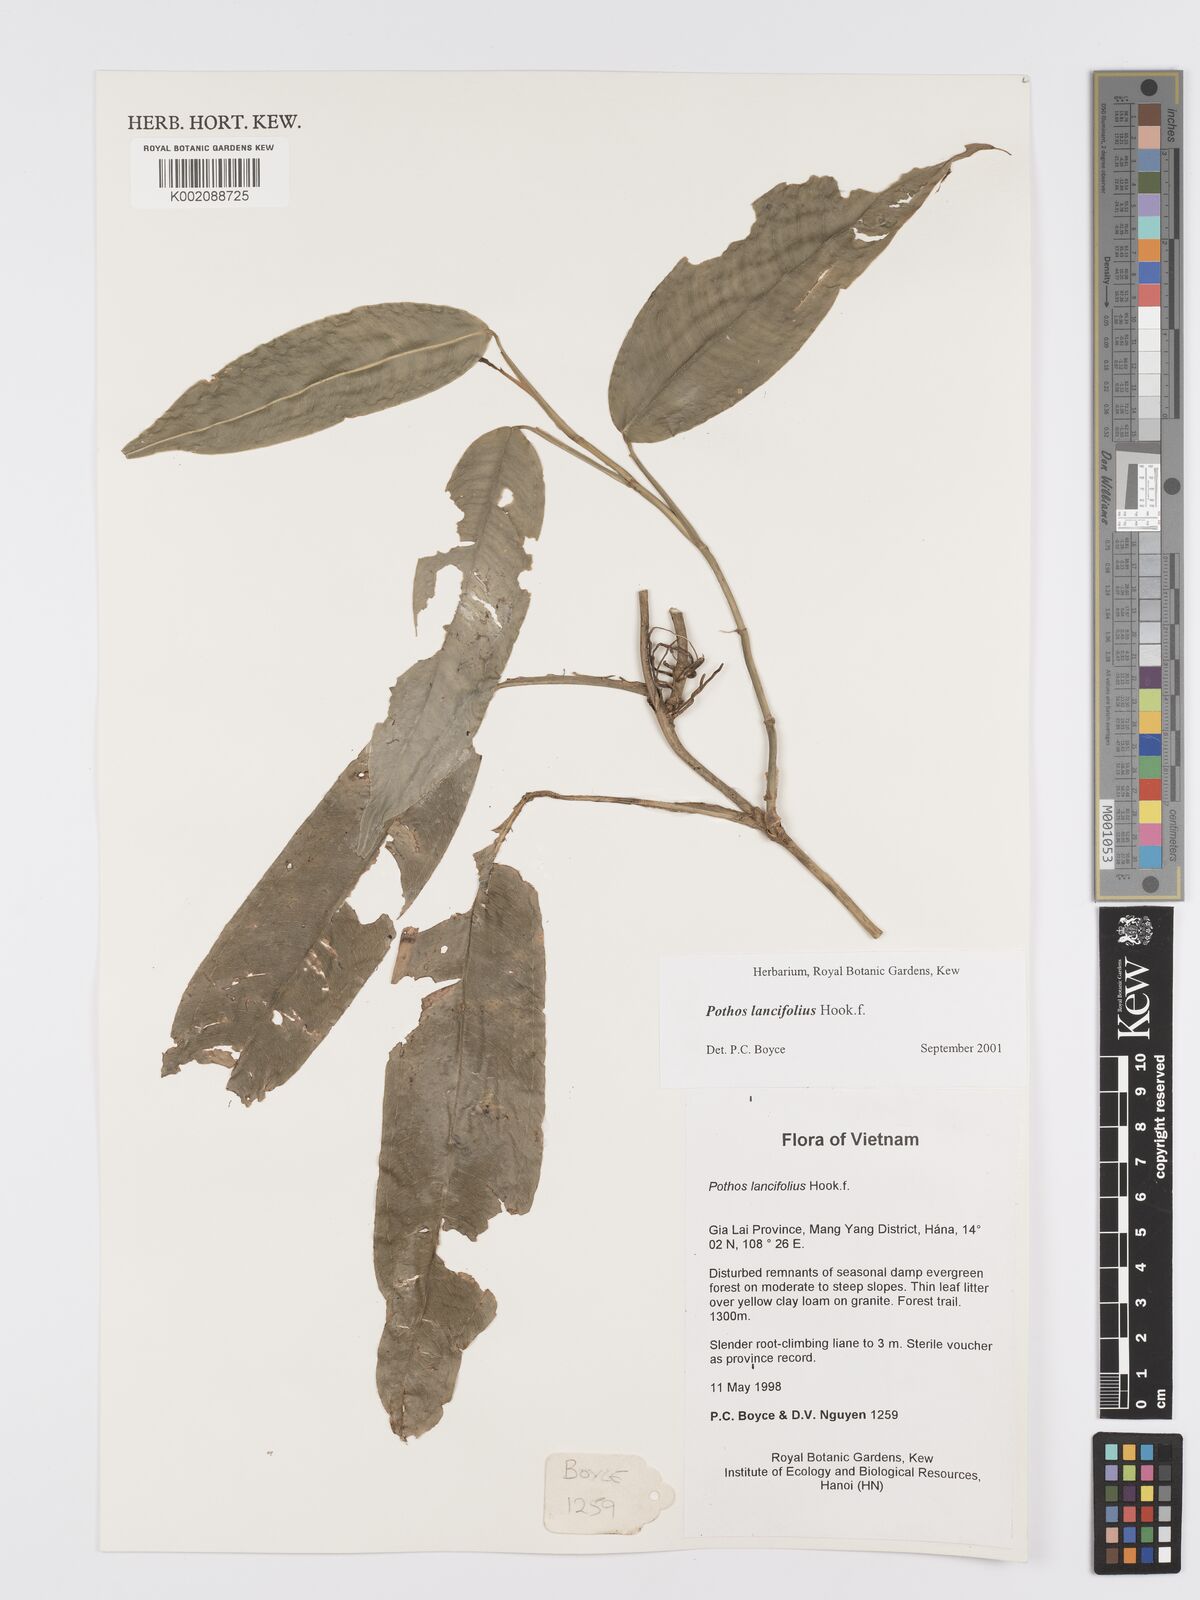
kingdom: Plantae
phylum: Tracheophyta
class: Liliopsida
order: Alismatales
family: Araceae
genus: Pothos
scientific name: Pothos lancifolius
